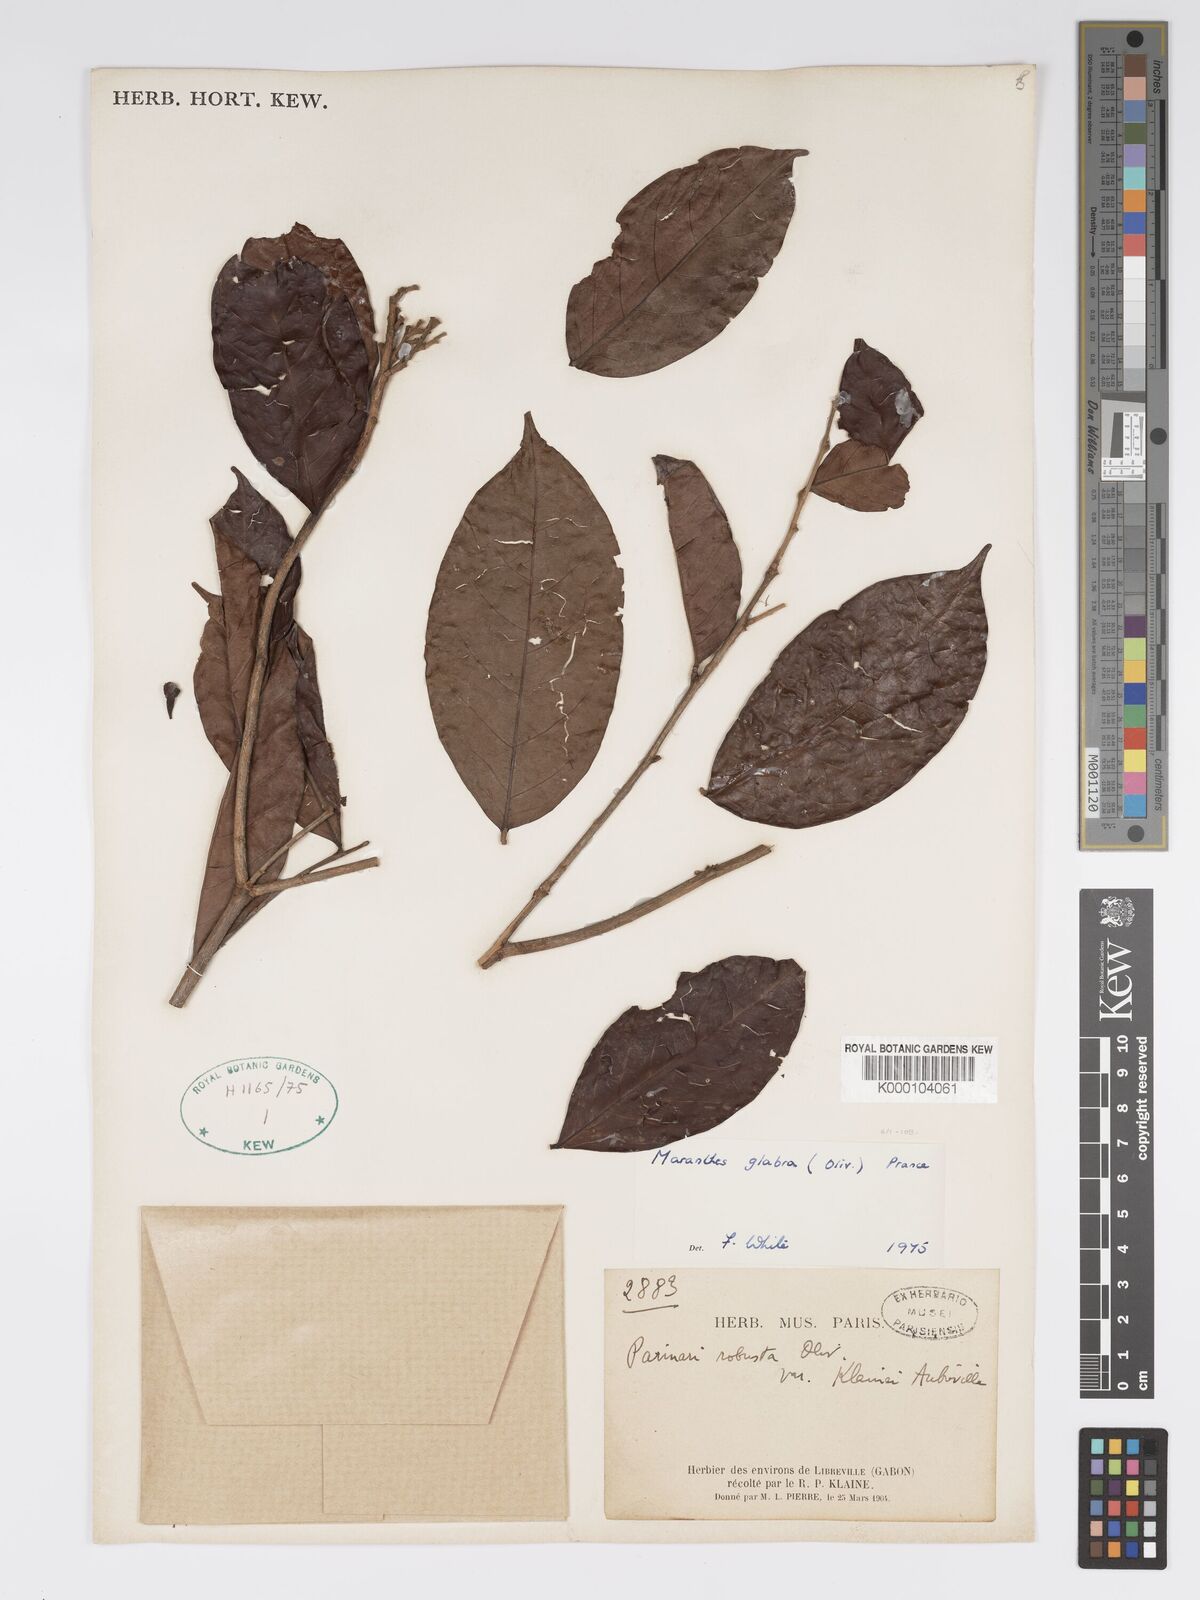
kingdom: Plantae
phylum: Tracheophyta
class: Magnoliopsida
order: Malpighiales
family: Chrysobalanaceae
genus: Maranthes
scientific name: Maranthes glabra
